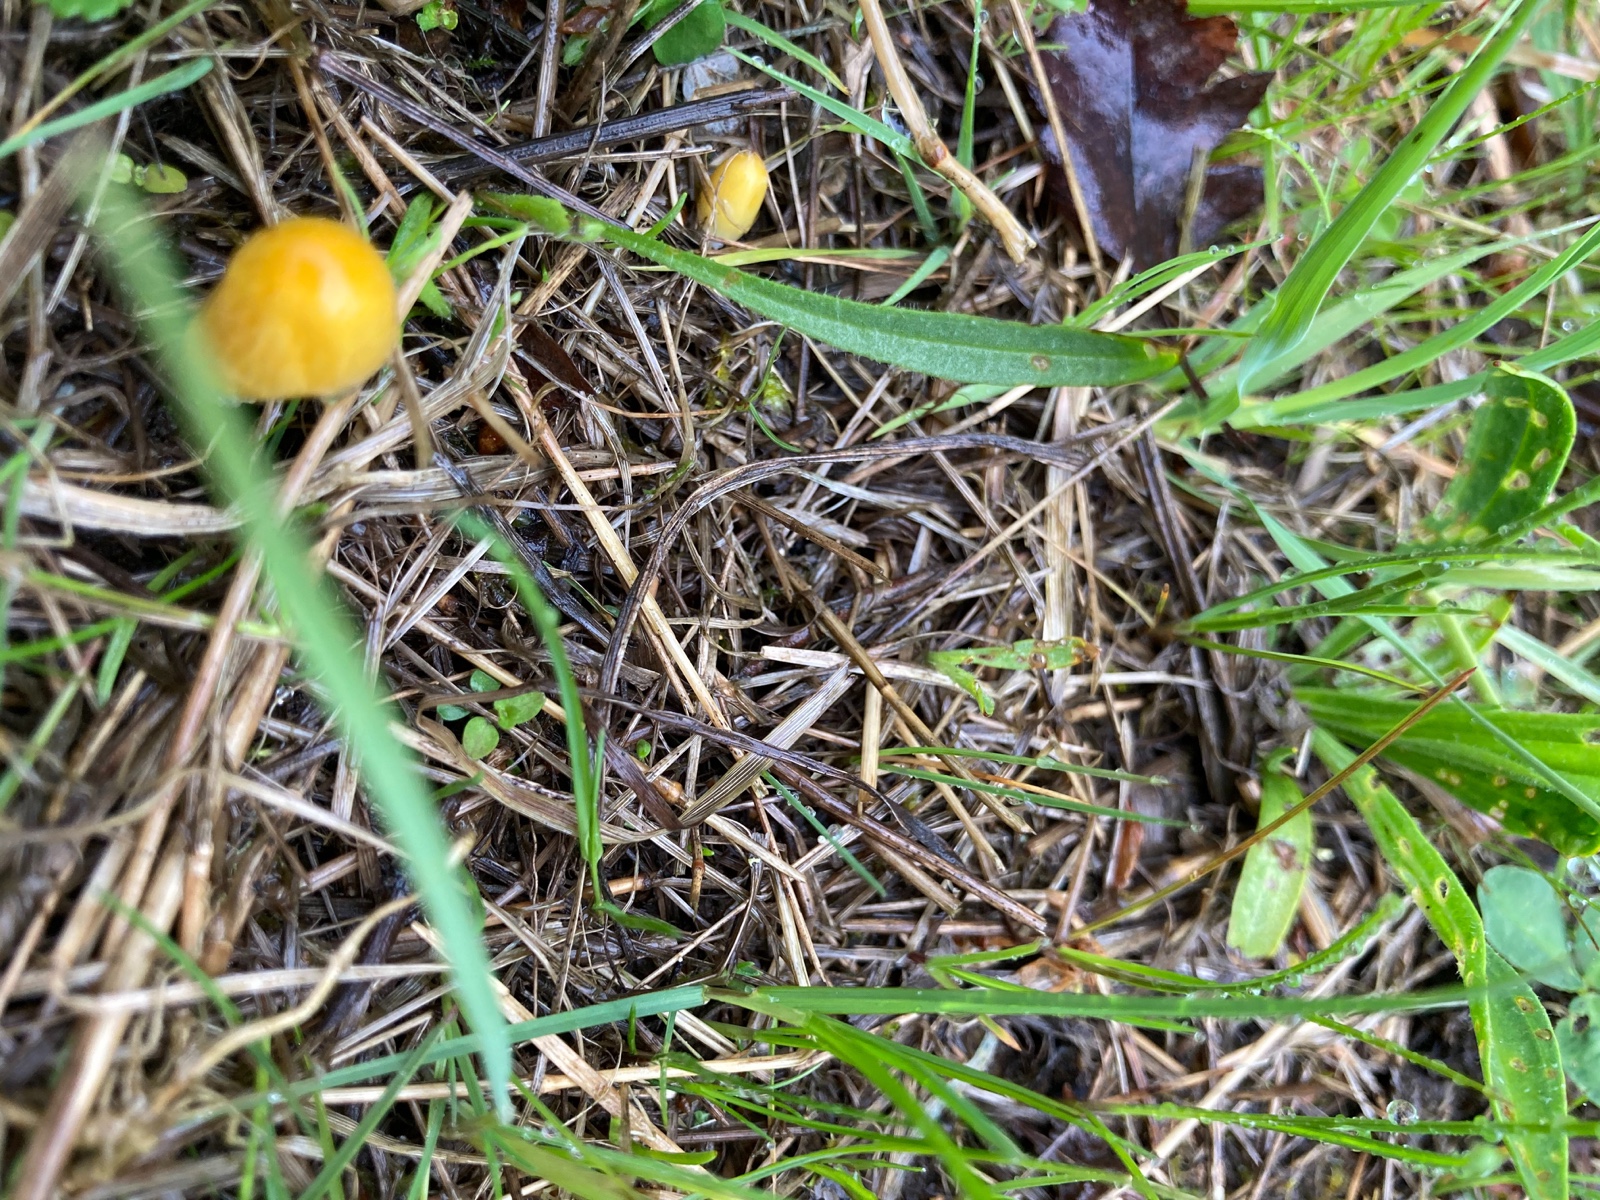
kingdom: Fungi
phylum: Basidiomycota
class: Agaricomycetes
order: Agaricales
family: Bolbitiaceae
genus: Bolbitius
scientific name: Bolbitius titubans
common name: almindelig gulhat
